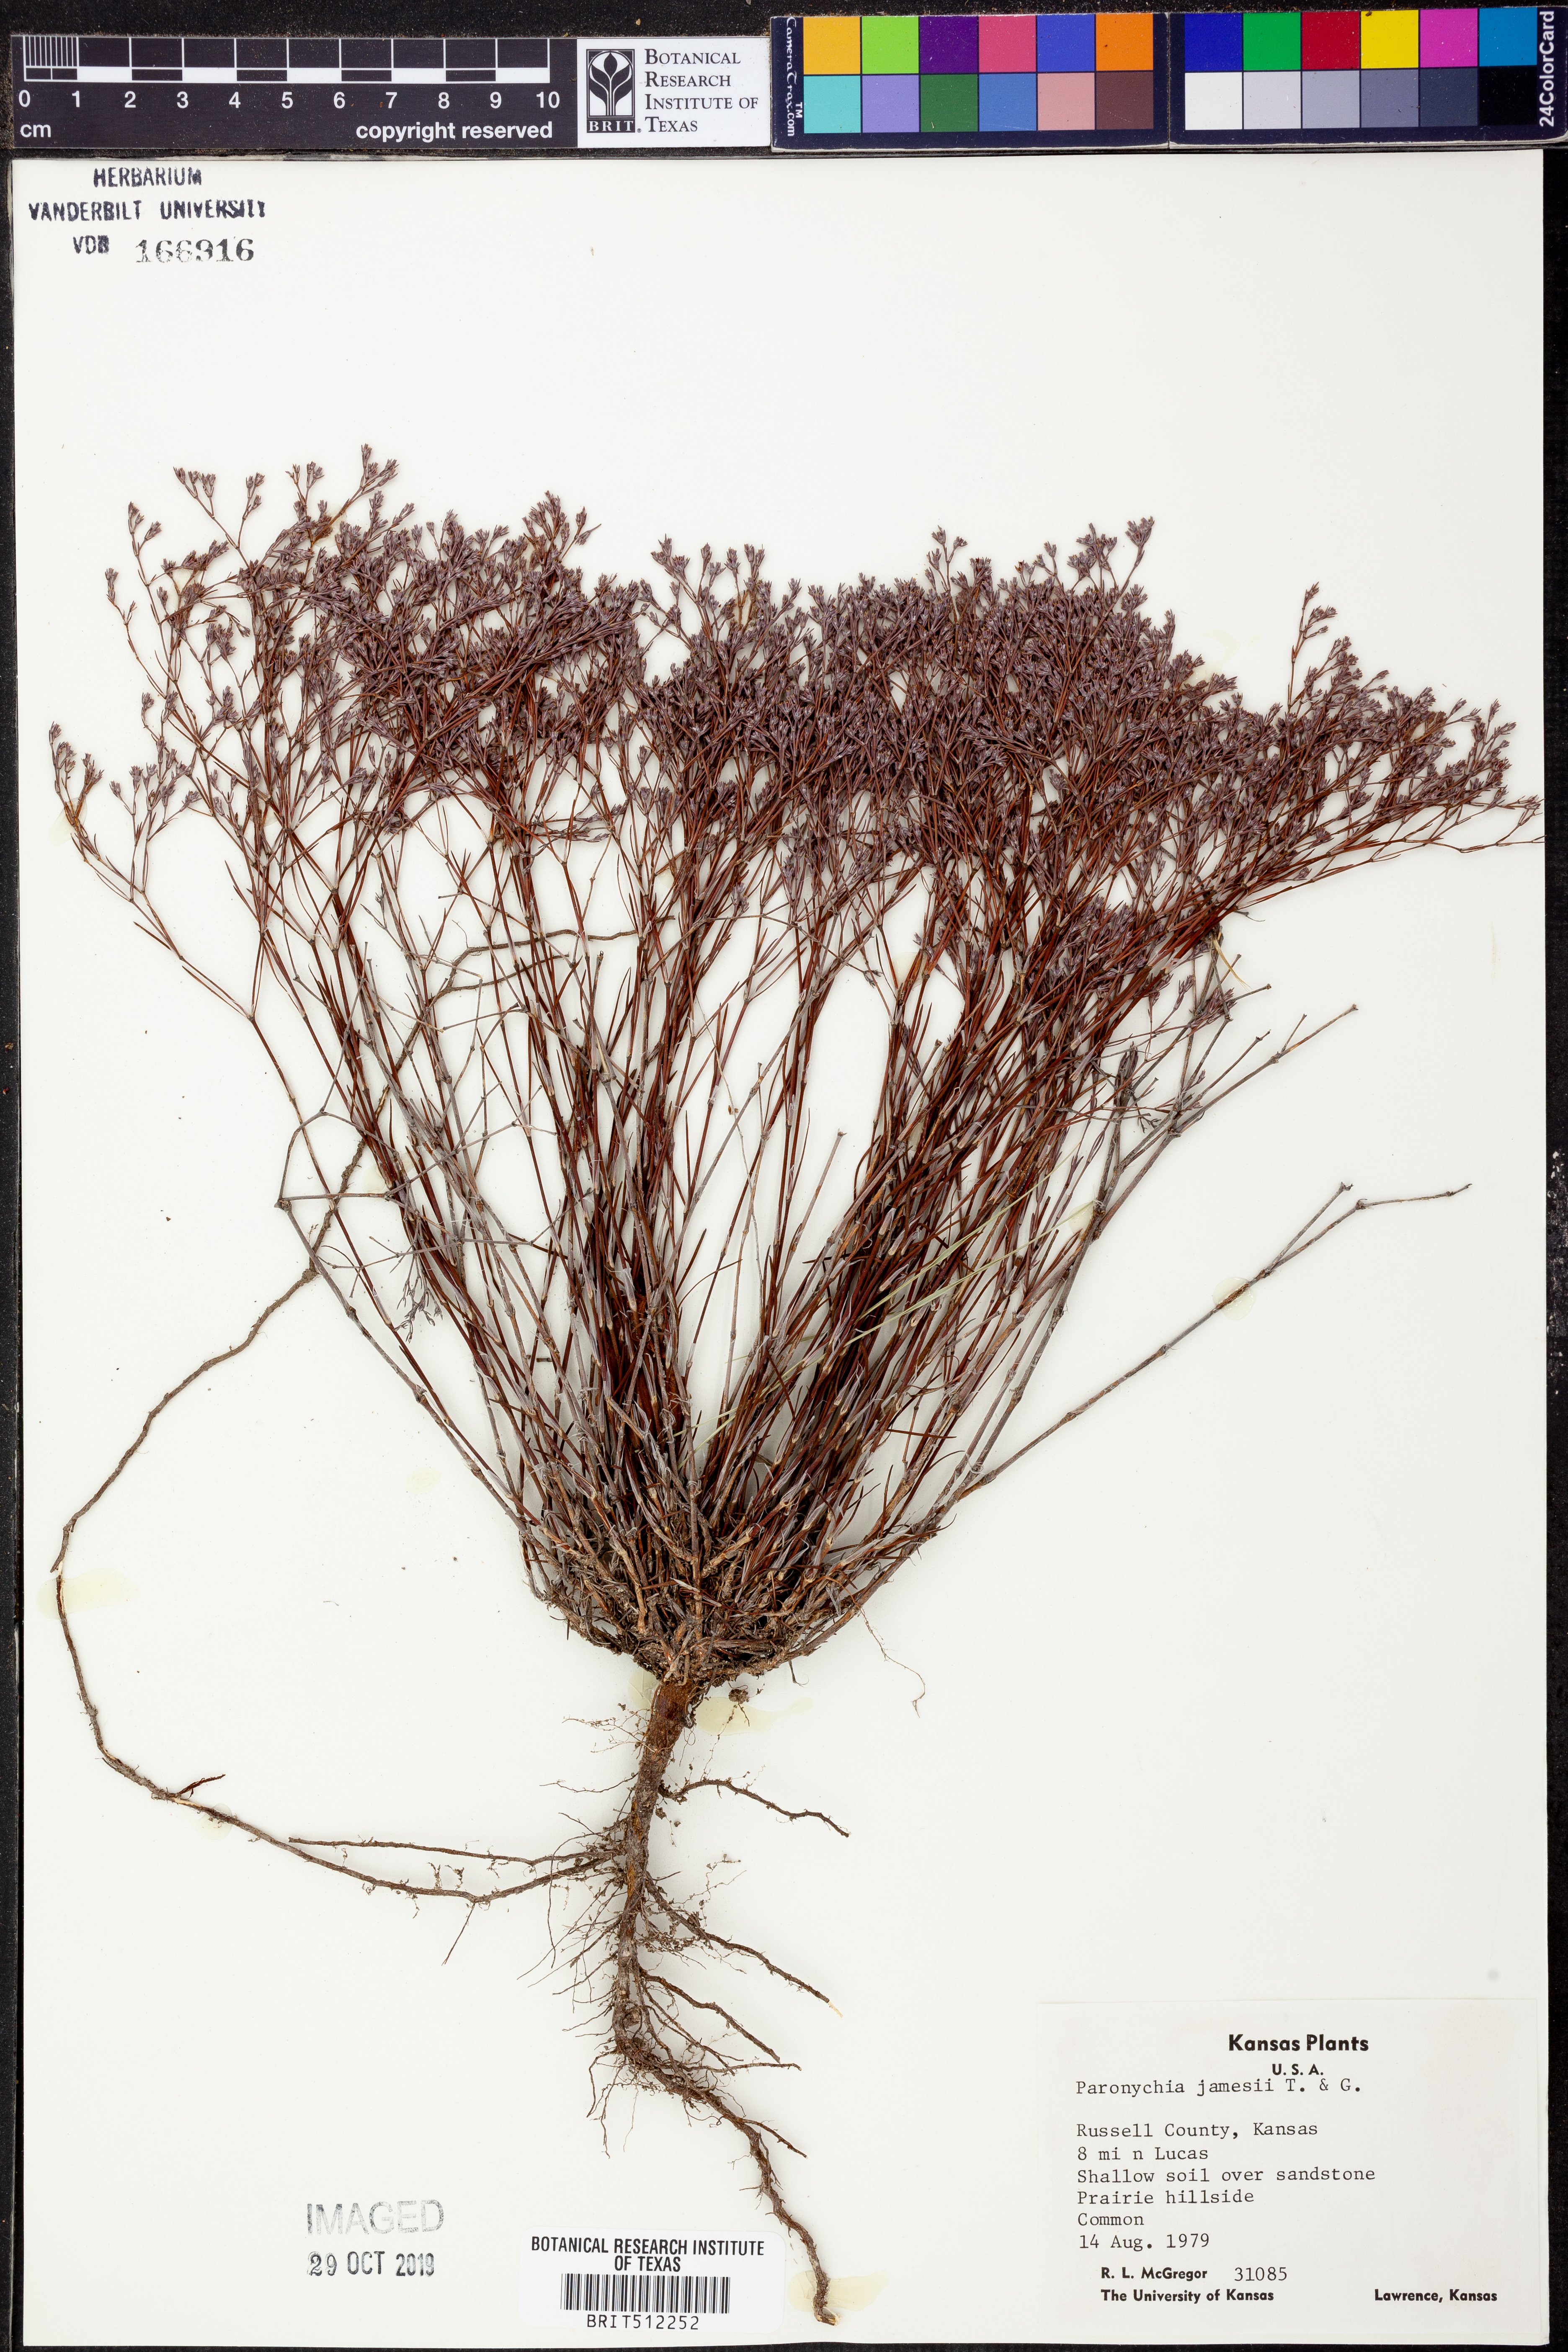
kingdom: Plantae
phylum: Tracheophyta
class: Magnoliopsida
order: Caryophyllales
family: Caryophyllaceae
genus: Paronychia
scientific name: Paronychia jamesii
